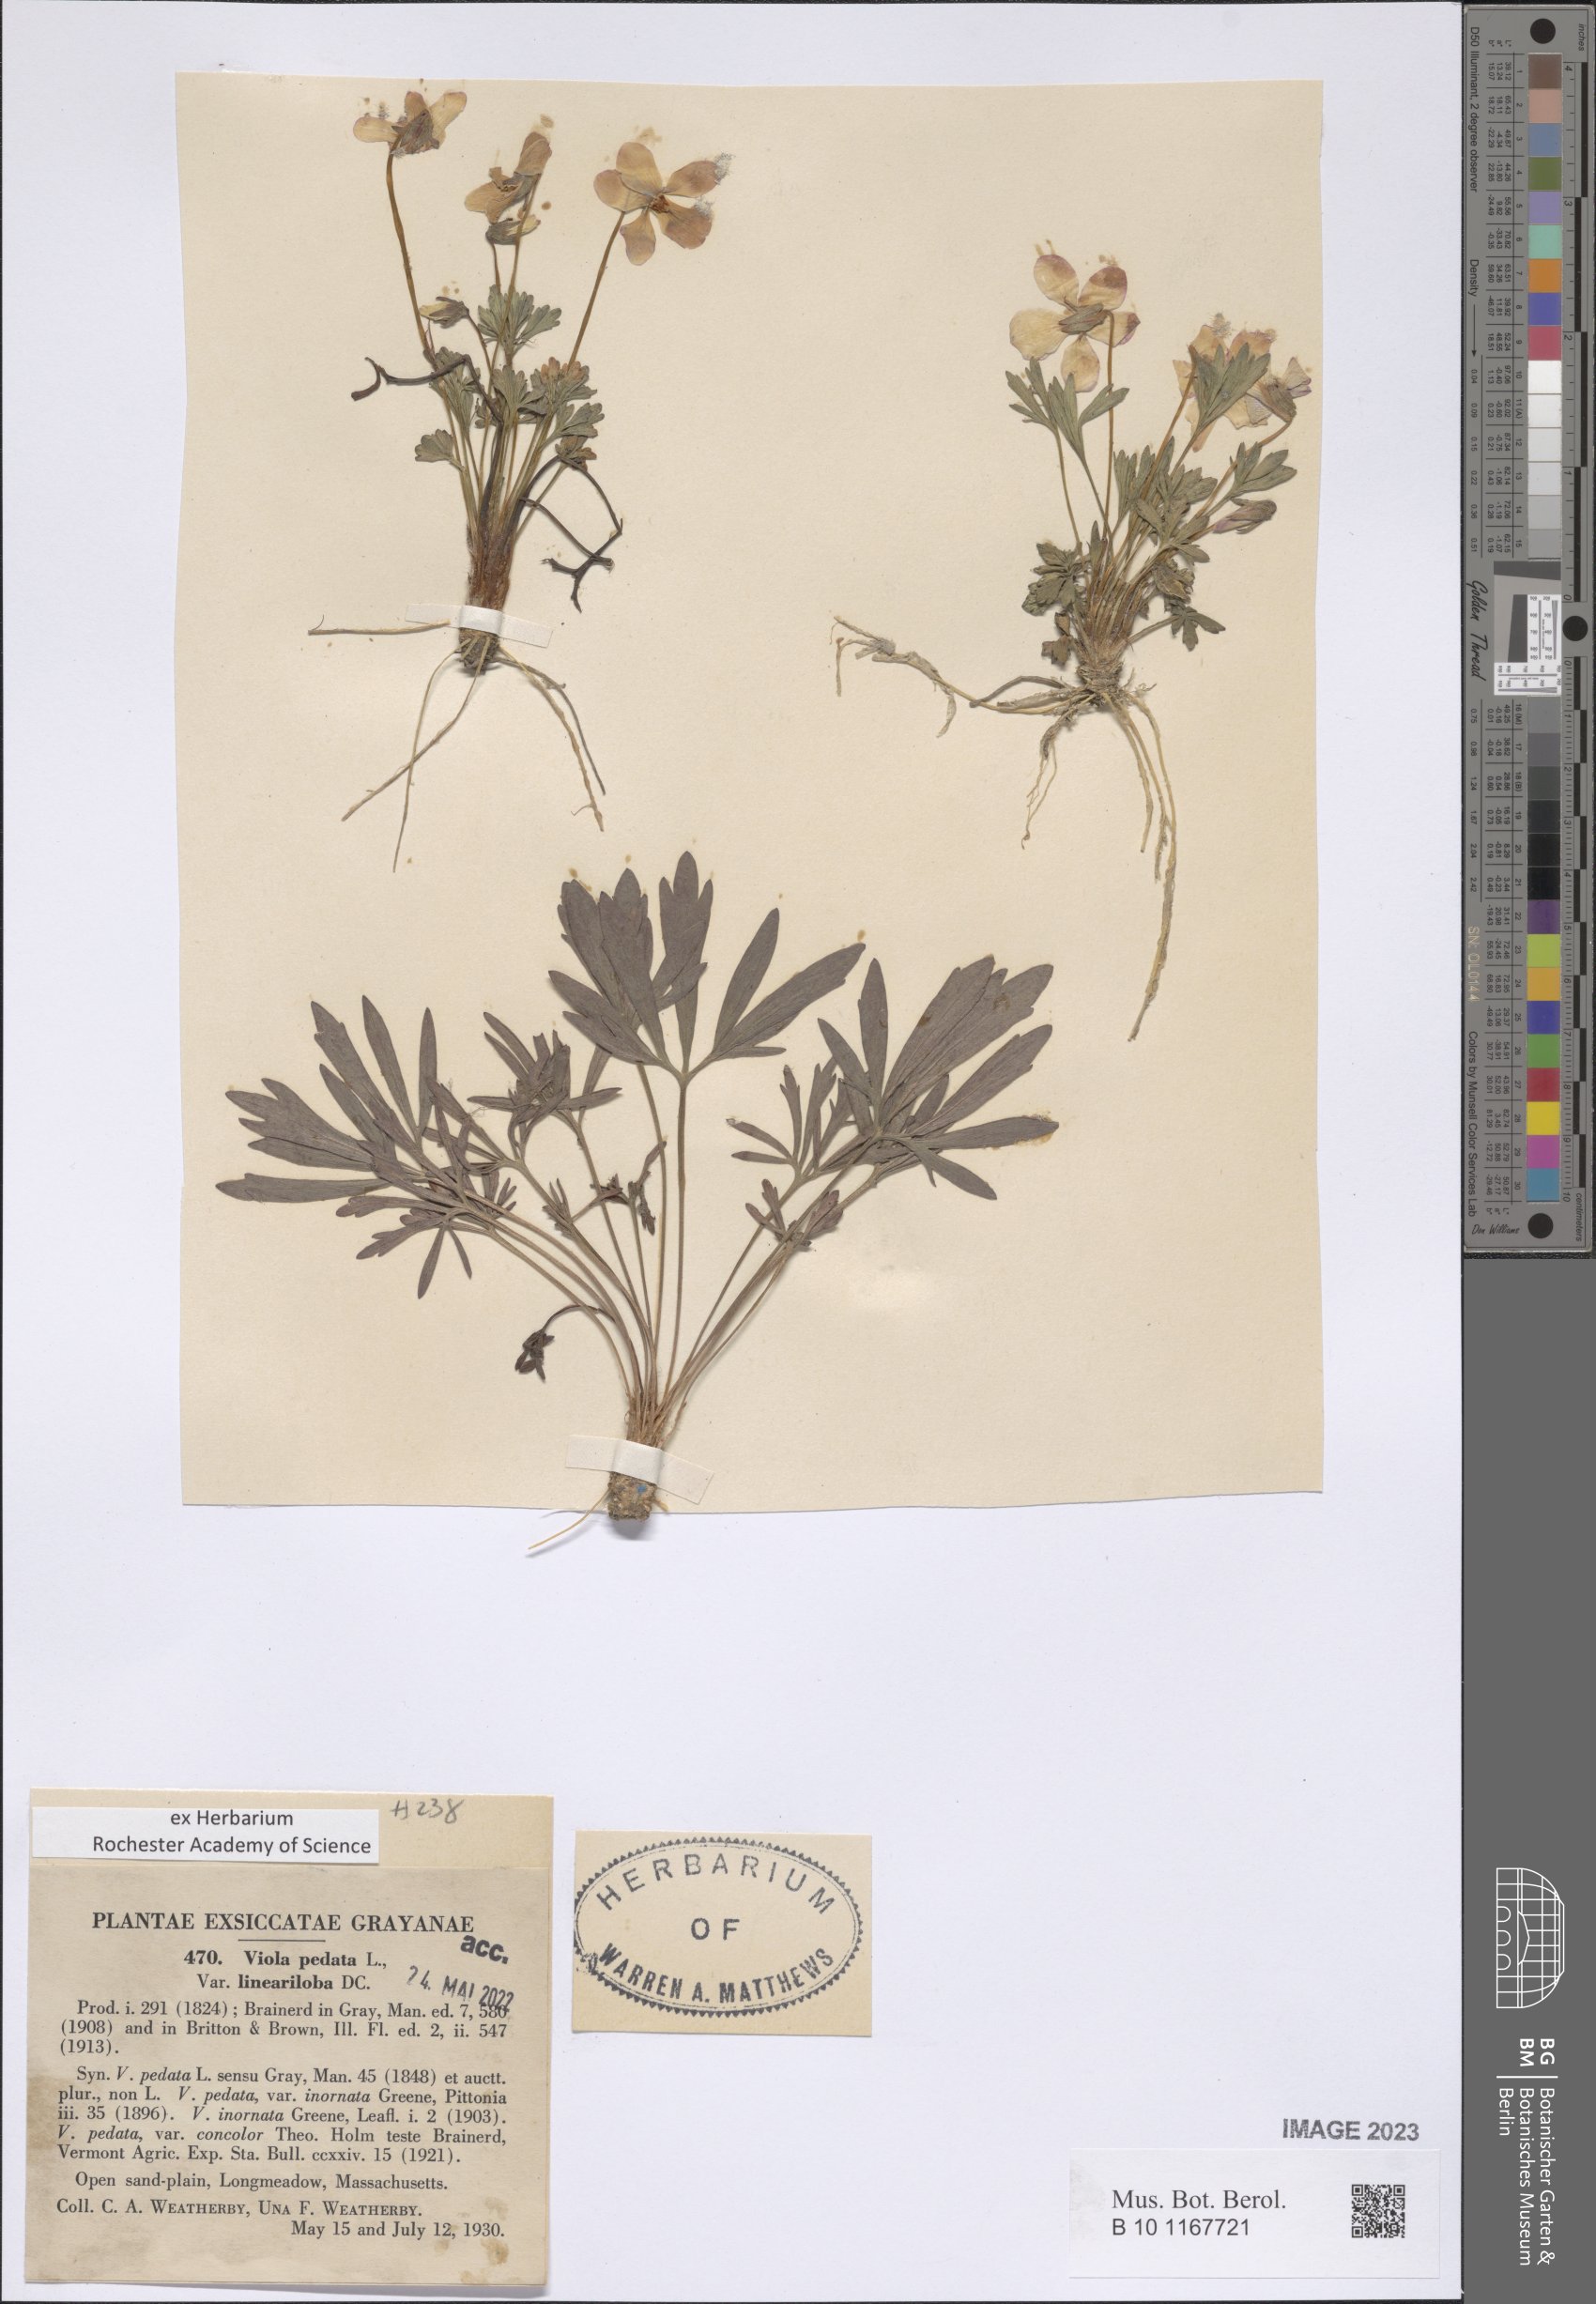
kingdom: Plantae
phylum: Tracheophyta
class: Magnoliopsida
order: Malpighiales
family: Violaceae
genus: Viola
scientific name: Viola pedata
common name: Pansy violet
